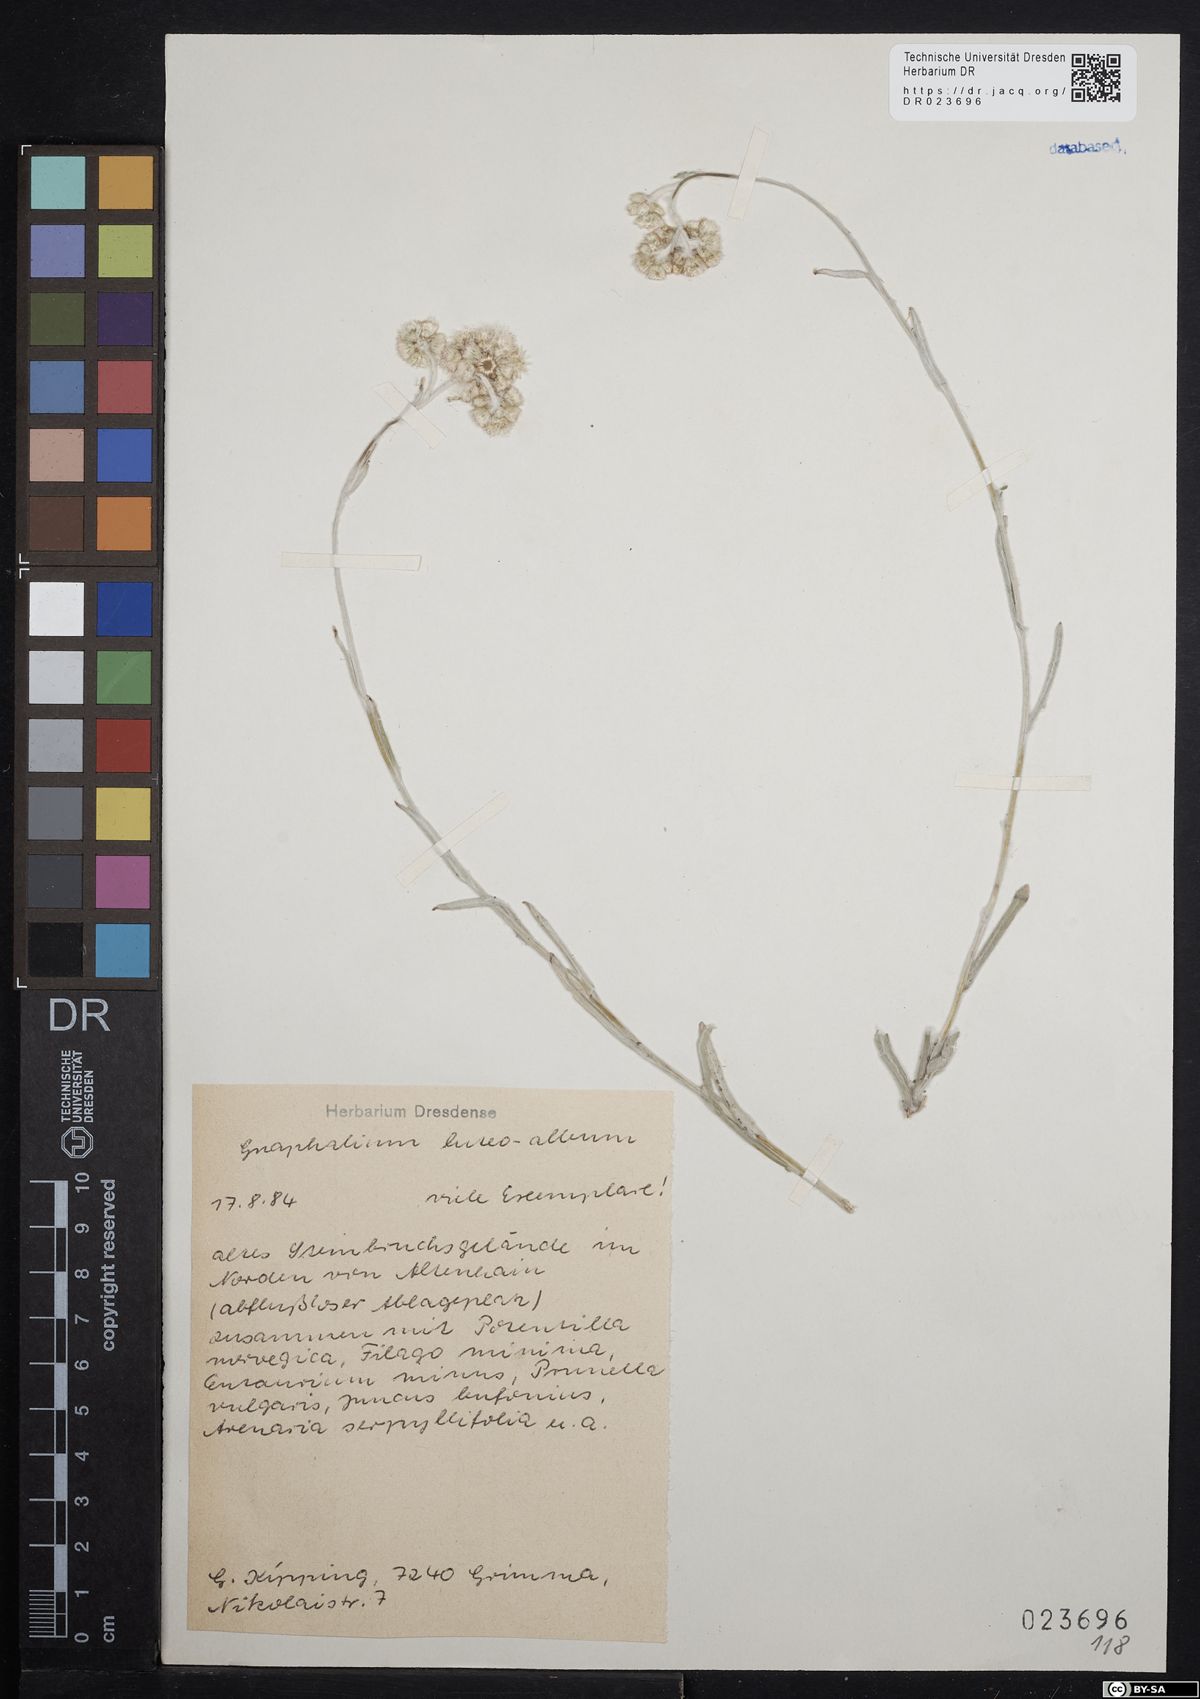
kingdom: Plantae
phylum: Tracheophyta
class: Magnoliopsida
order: Asterales
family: Asteraceae
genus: Helichrysum
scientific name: Helichrysum luteoalbum
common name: Daisy
